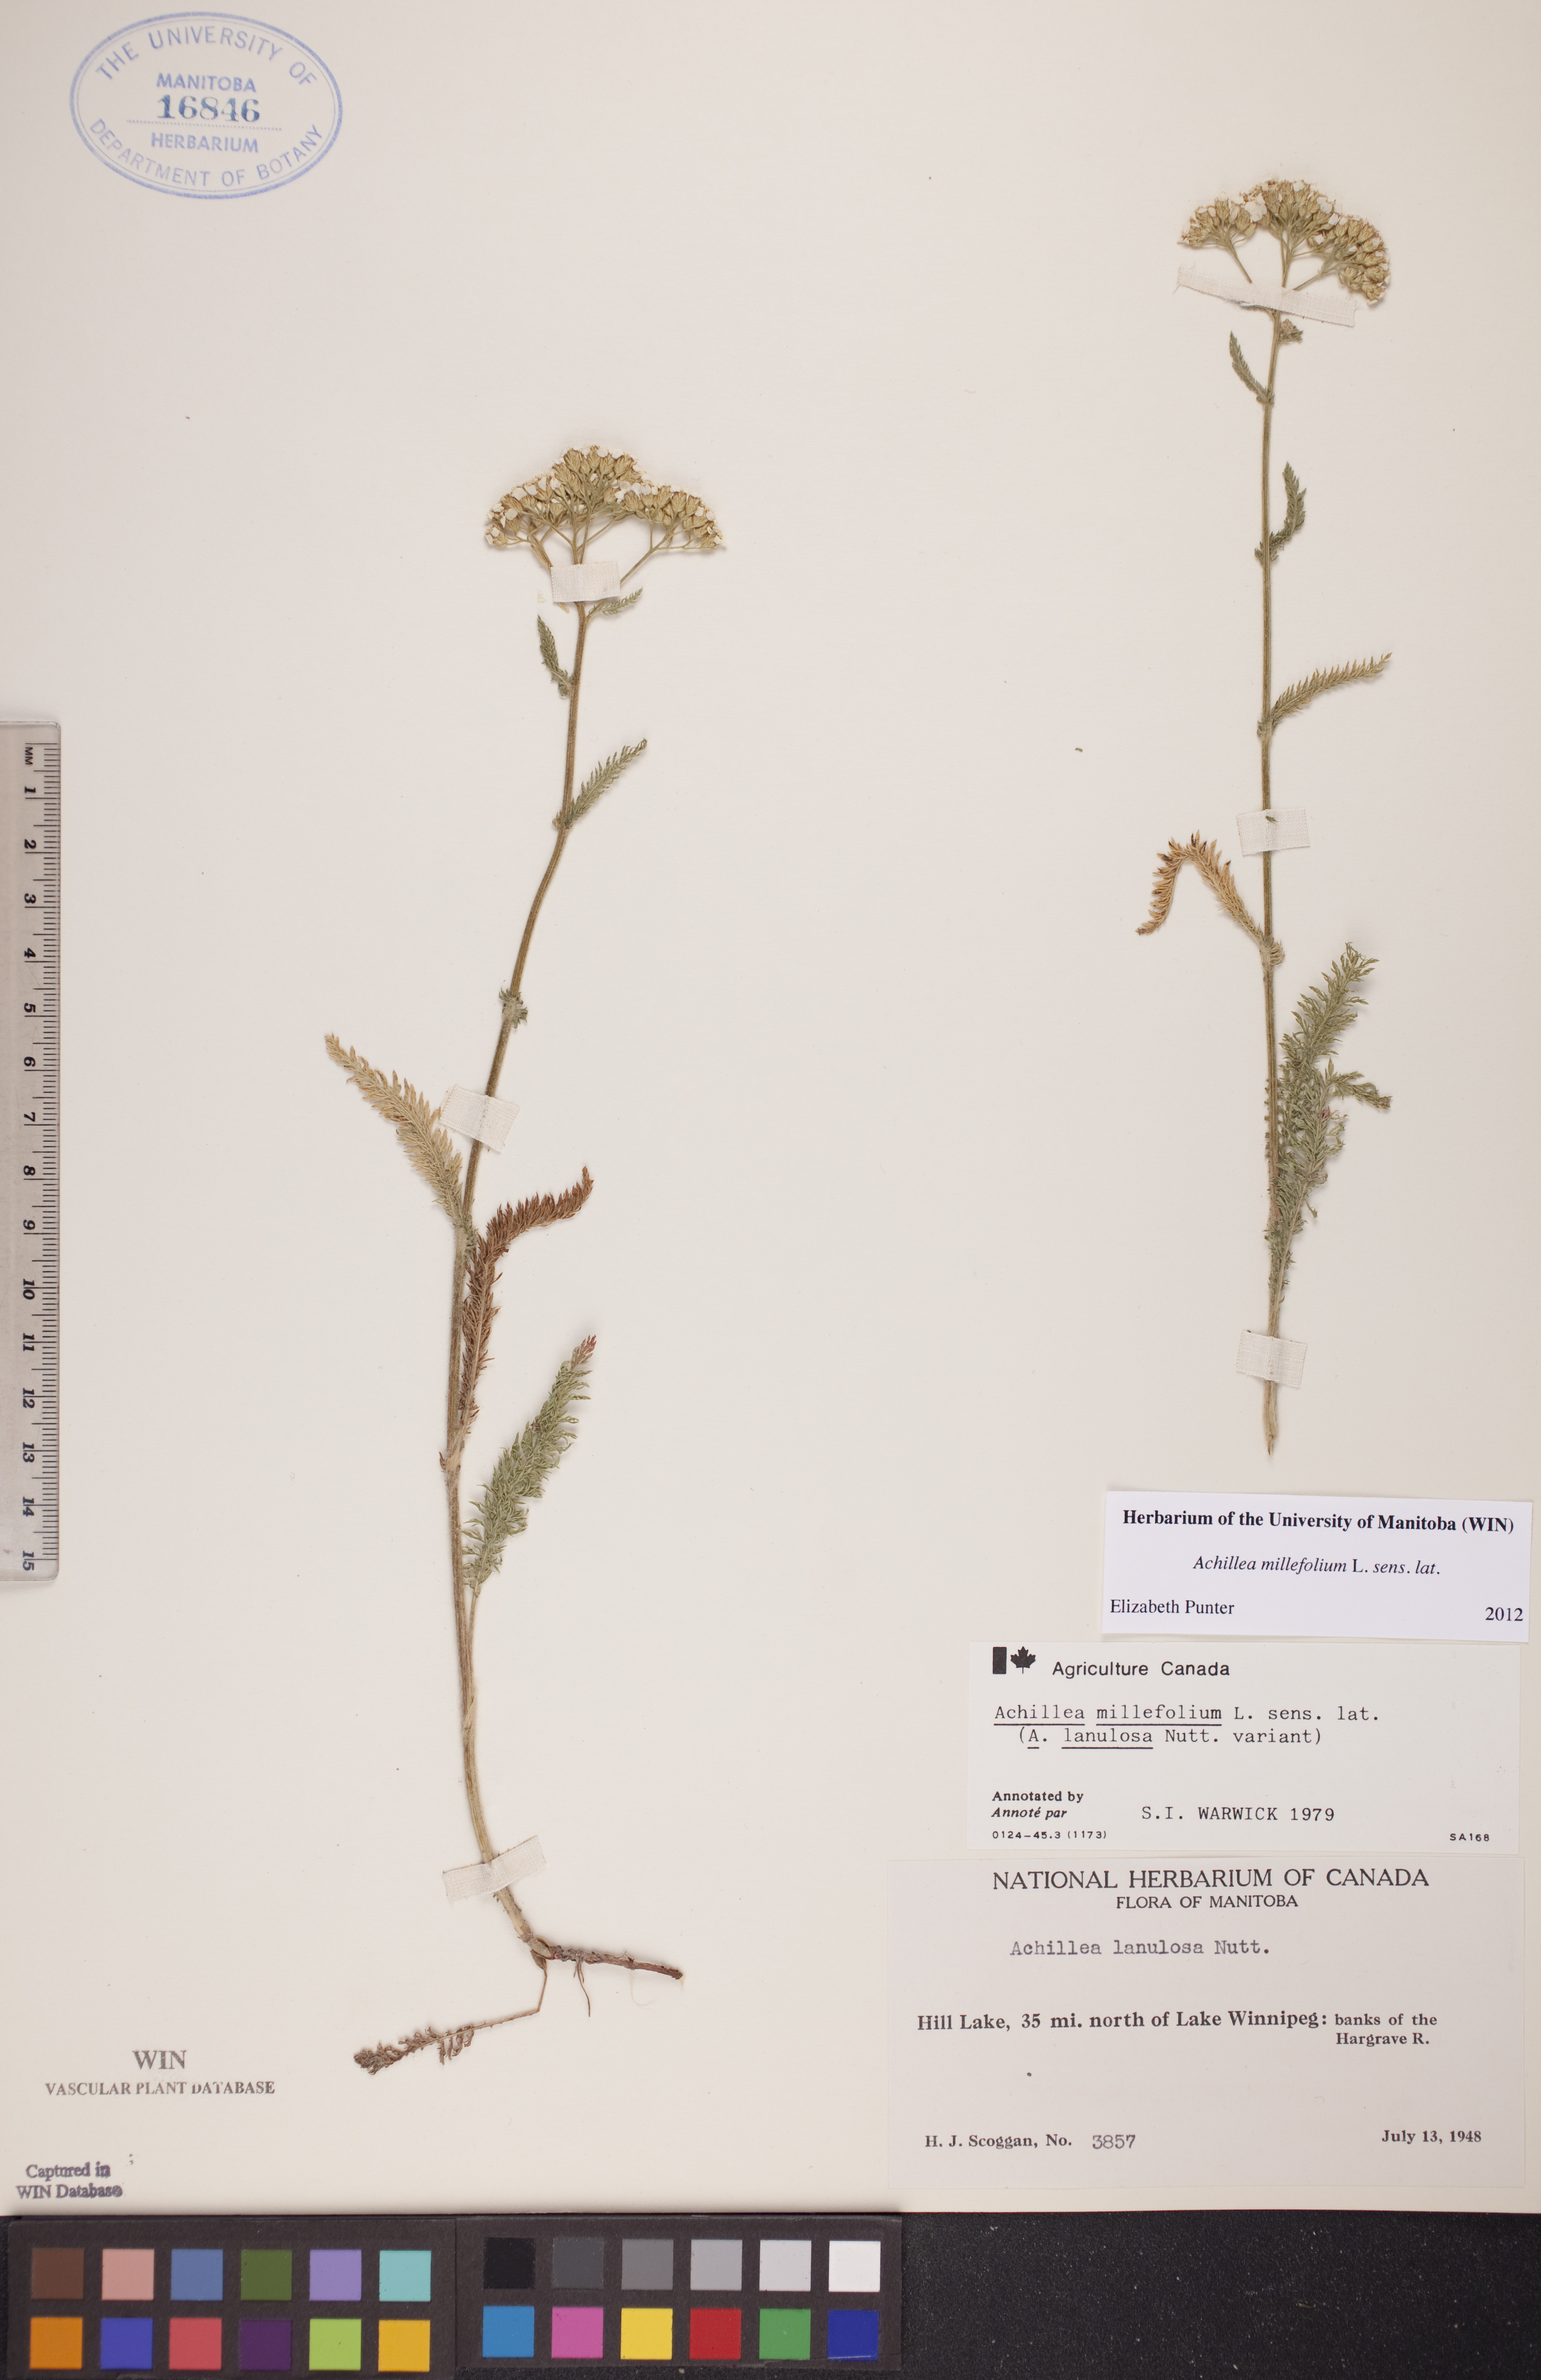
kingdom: Plantae
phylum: Tracheophyta
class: Magnoliopsida
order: Asterales
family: Asteraceae
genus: Achillea
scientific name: Achillea millefolium
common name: Yarrow
